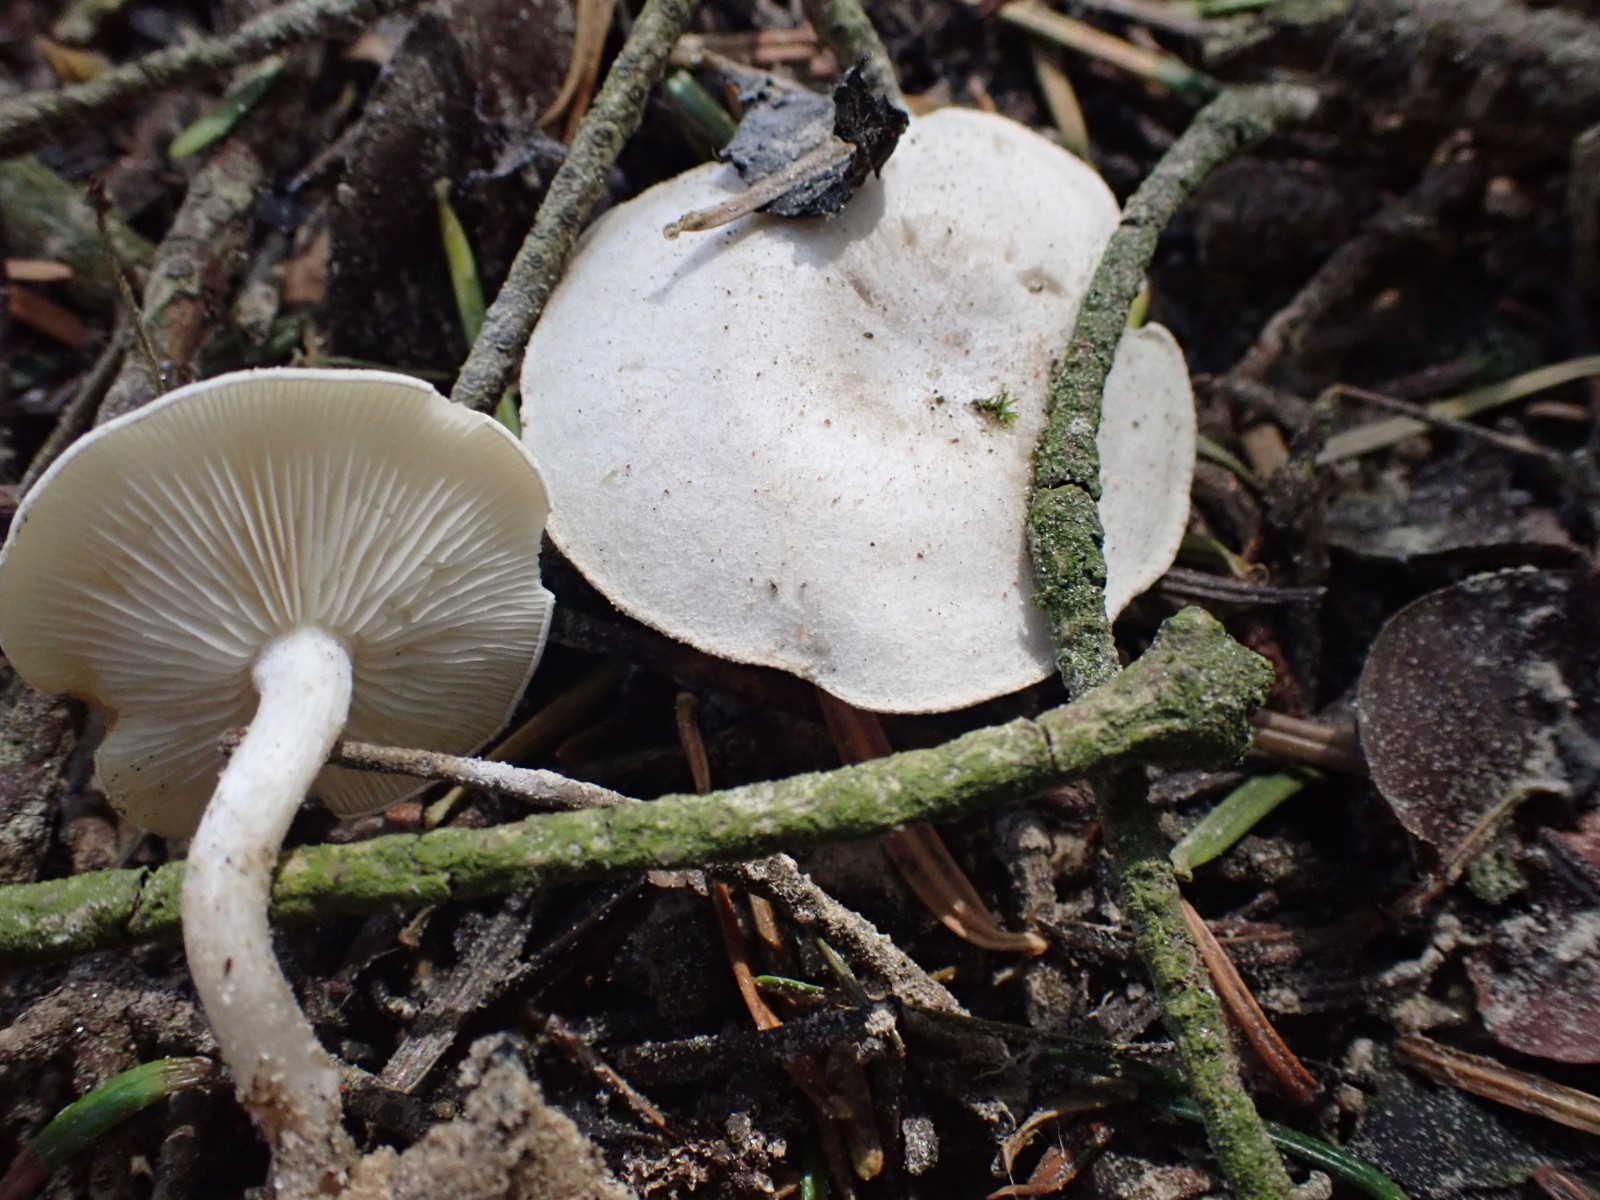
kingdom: Fungi
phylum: Basidiomycota
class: Agaricomycetes
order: Agaricales
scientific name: Agaricales
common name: champignonordenen
